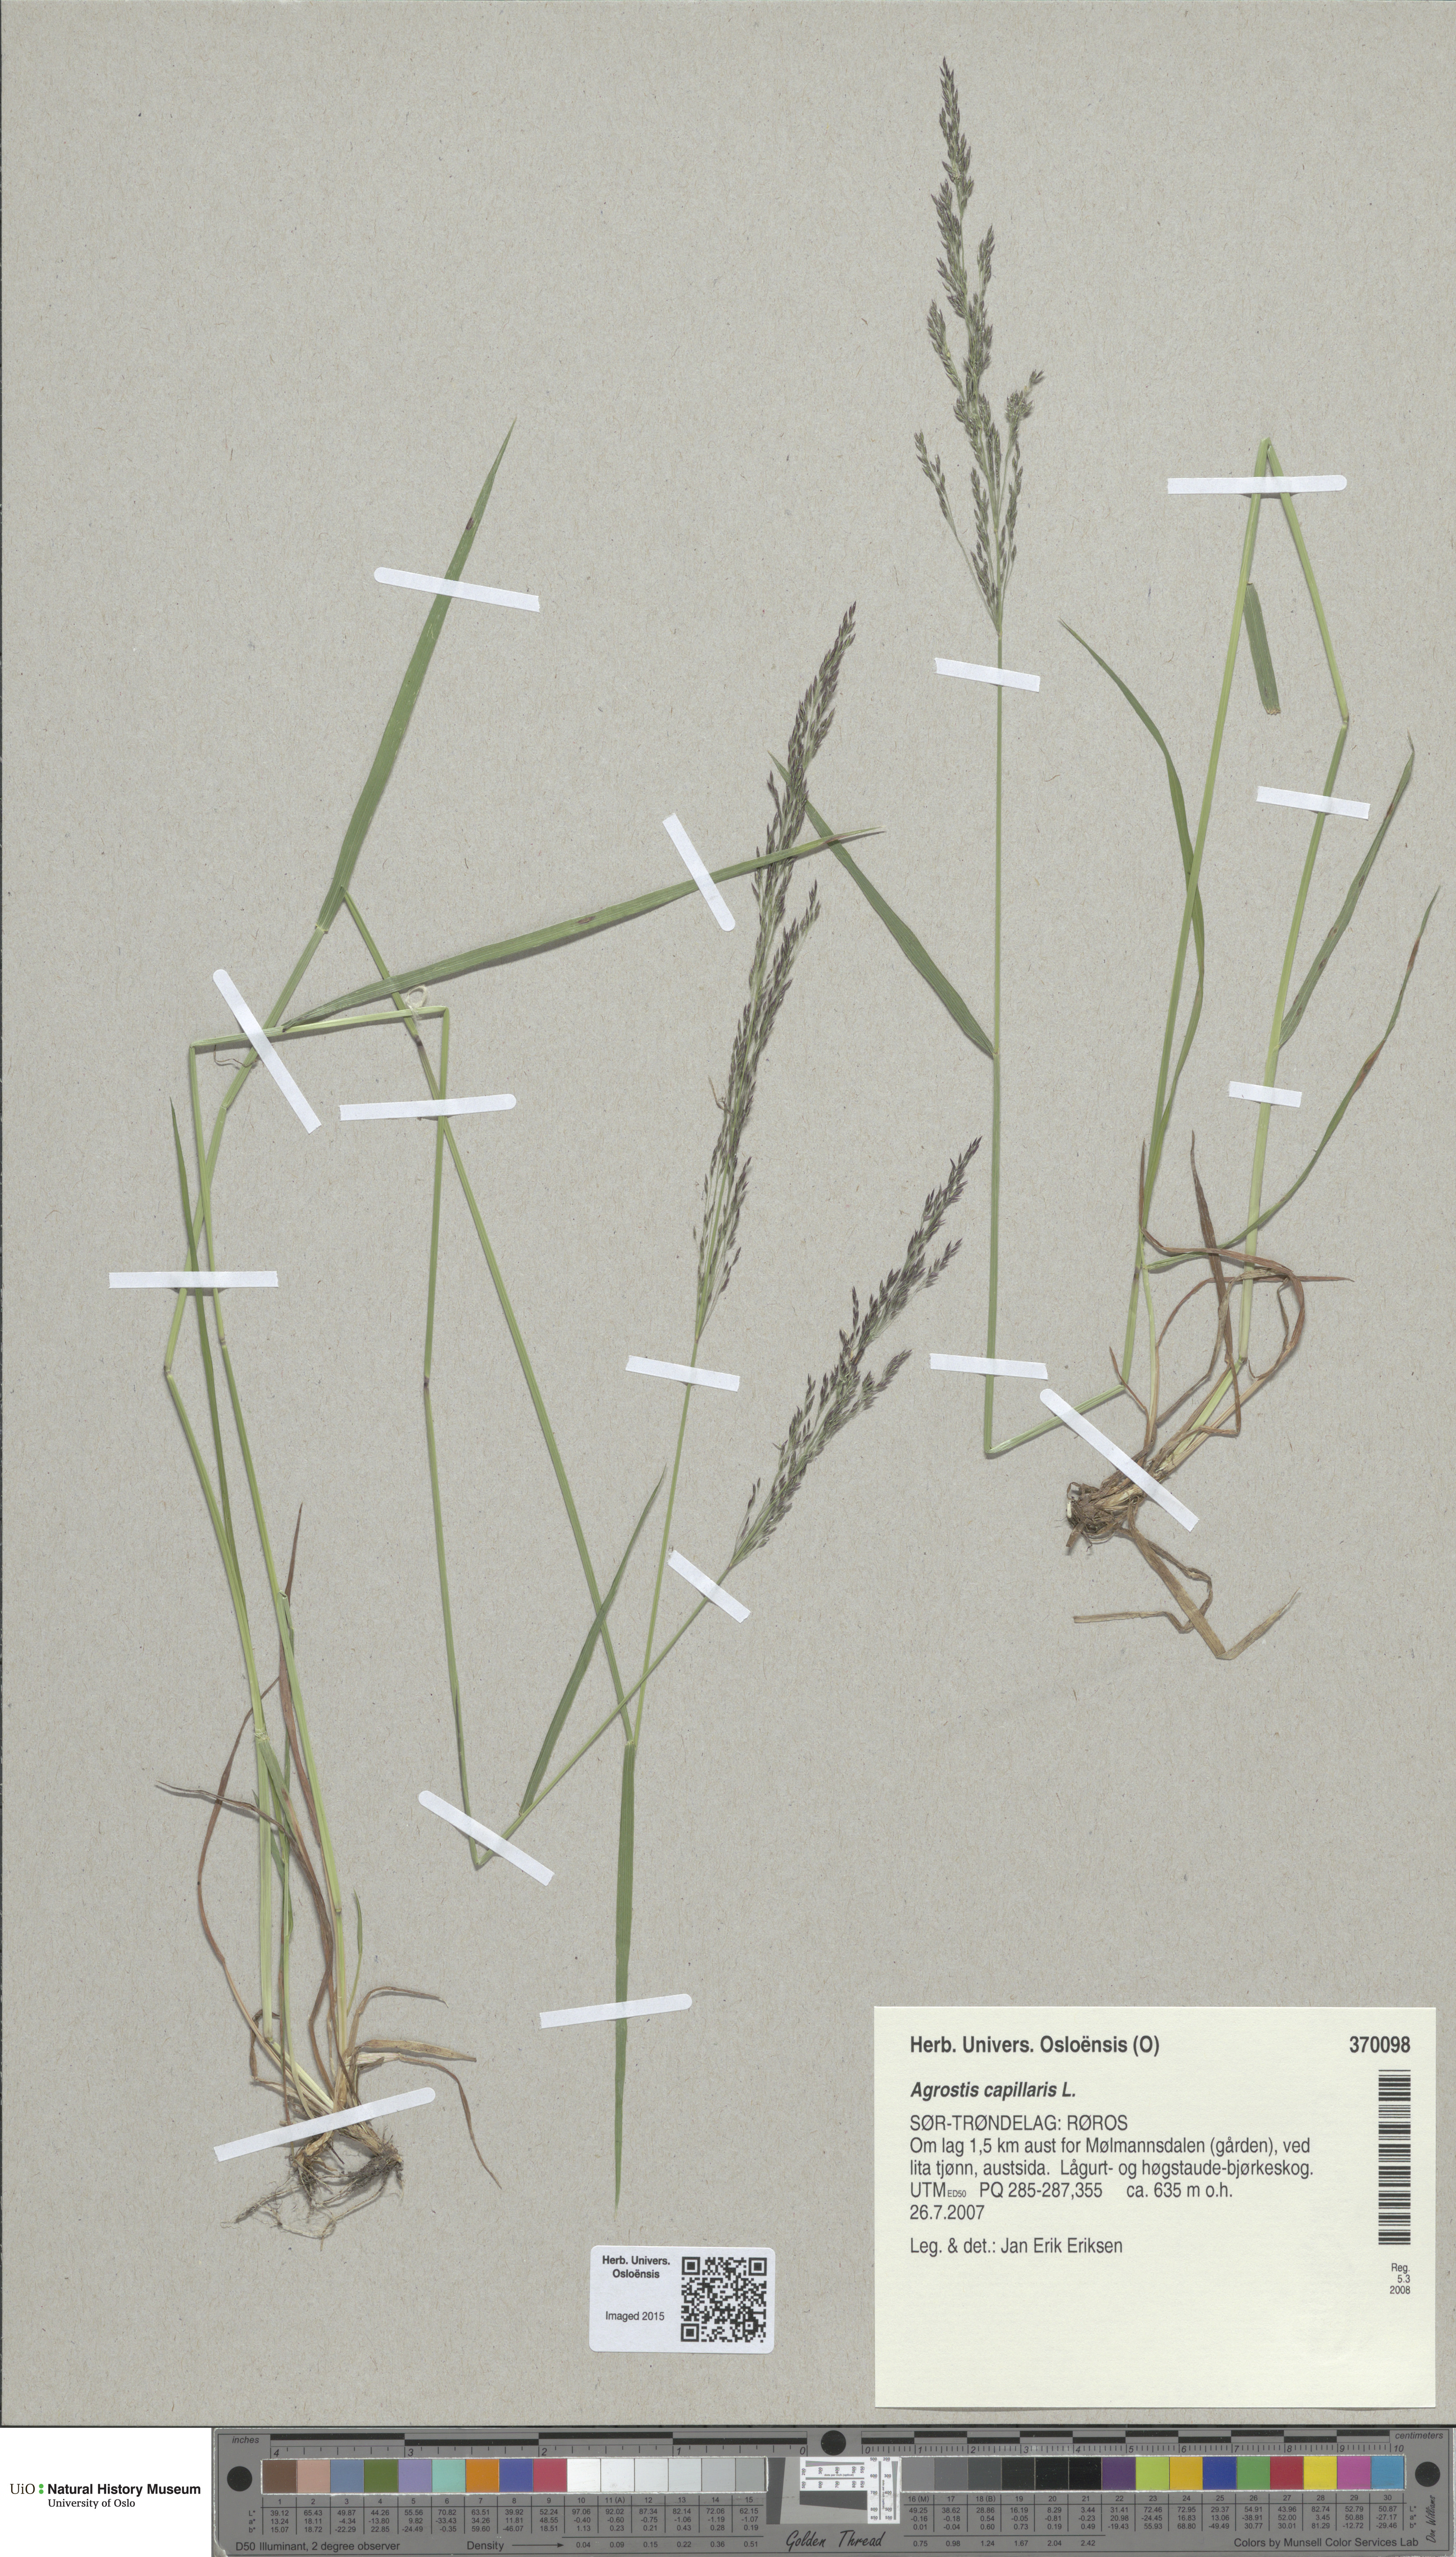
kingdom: Plantae
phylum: Tracheophyta
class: Liliopsida
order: Poales
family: Poaceae
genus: Agrostis
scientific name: Agrostis capillaris
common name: Colonial bentgrass
